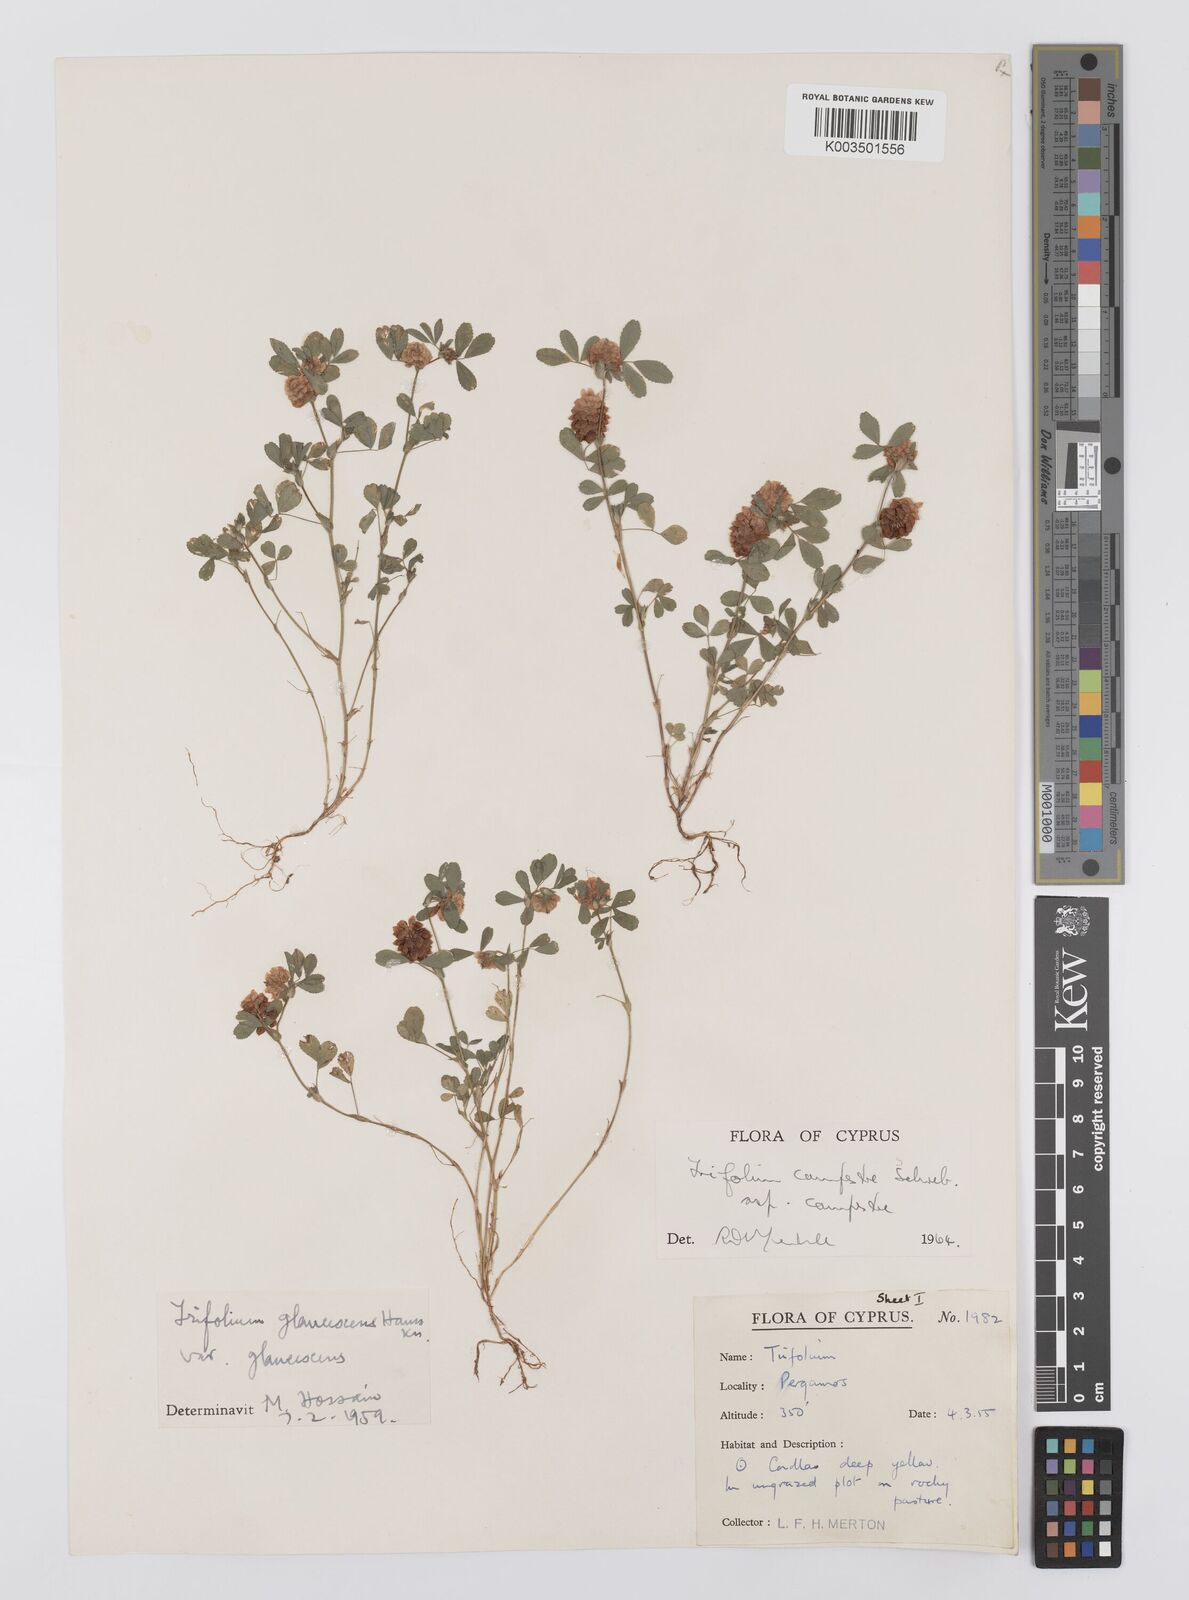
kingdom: Plantae
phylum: Tracheophyta
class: Magnoliopsida
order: Fabales
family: Fabaceae
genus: Trifolium
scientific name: Trifolium campestre
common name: Field clover
